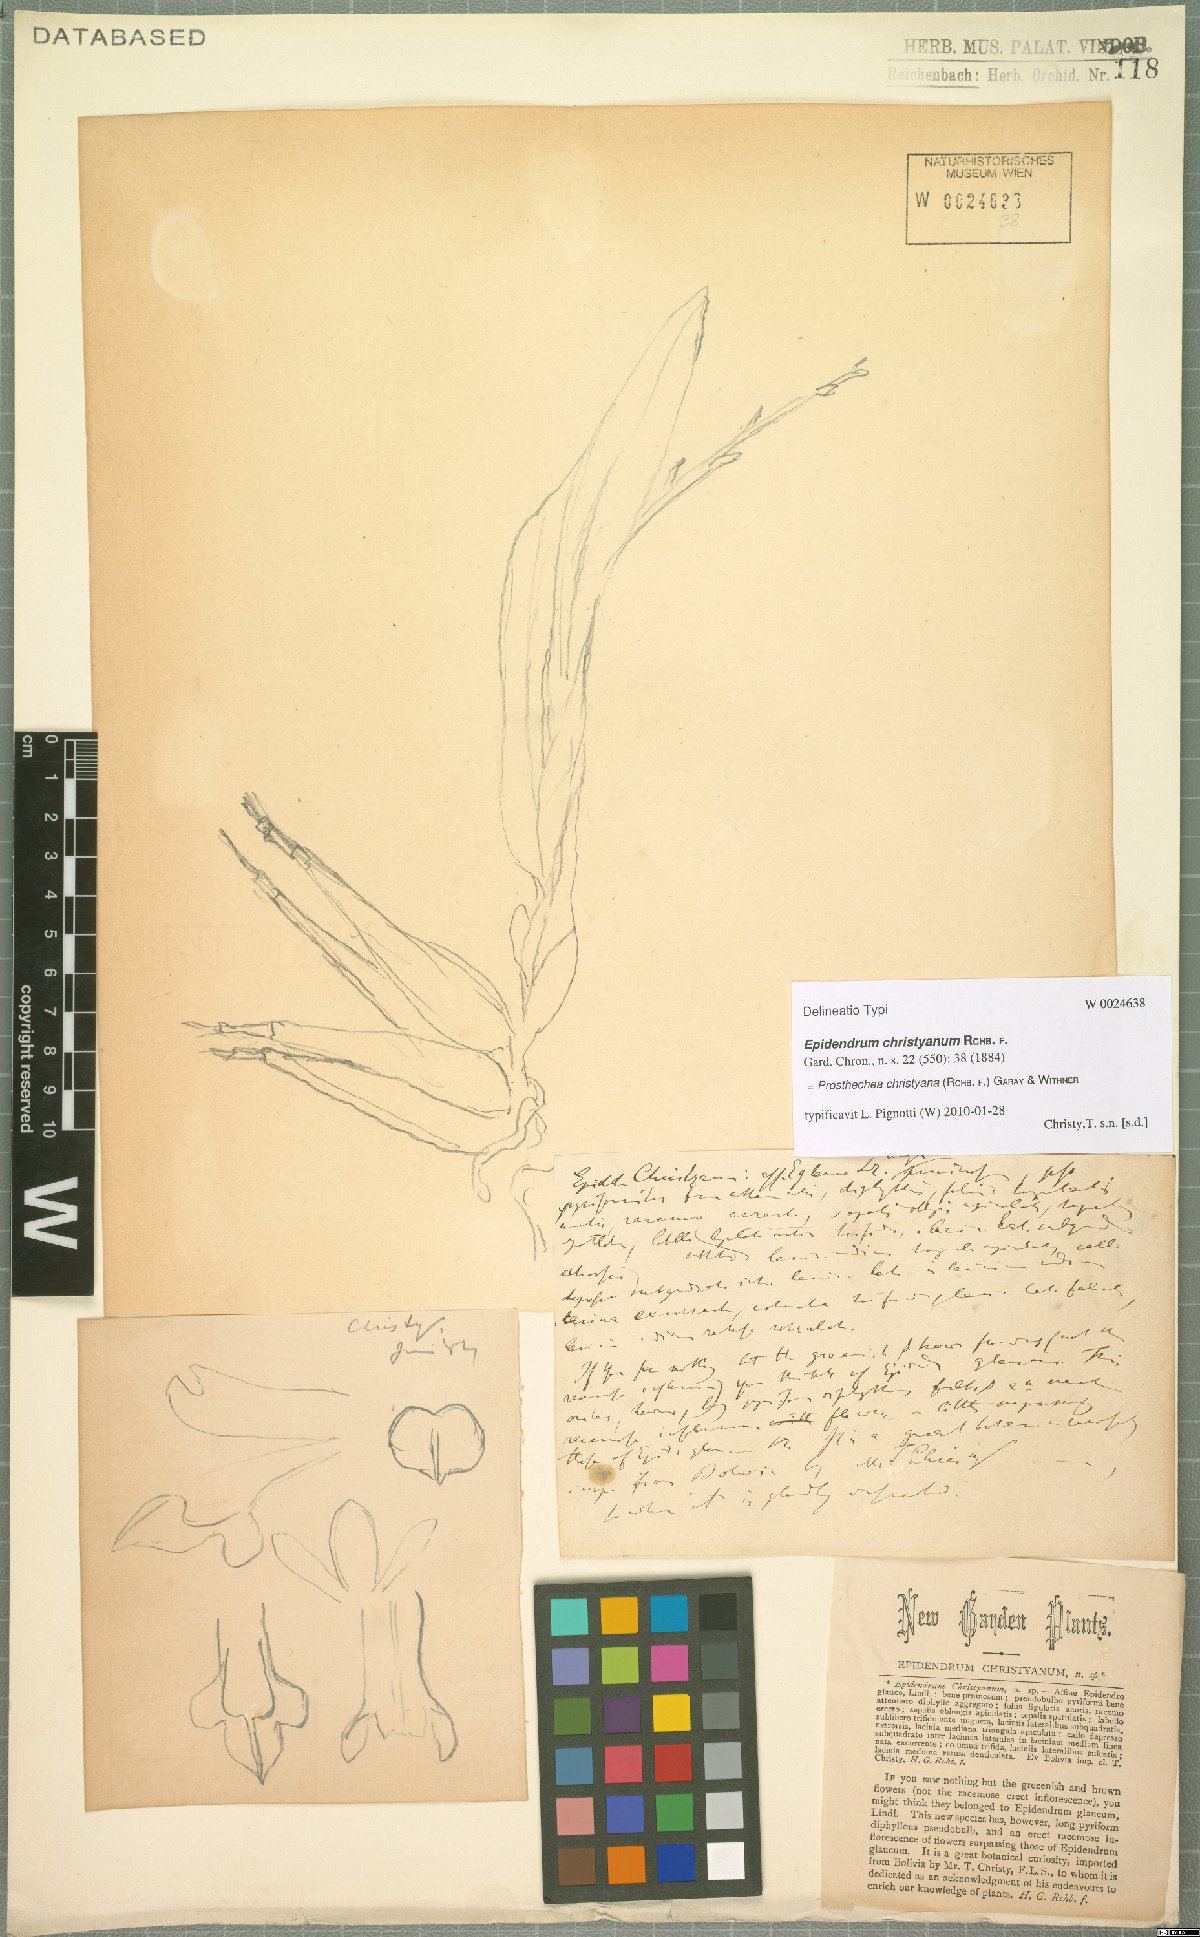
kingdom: Plantae
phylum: Tracheophyta
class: Liliopsida
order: Asparagales
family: Orchidaceae
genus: Prosthechea
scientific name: Prosthechea christyana
